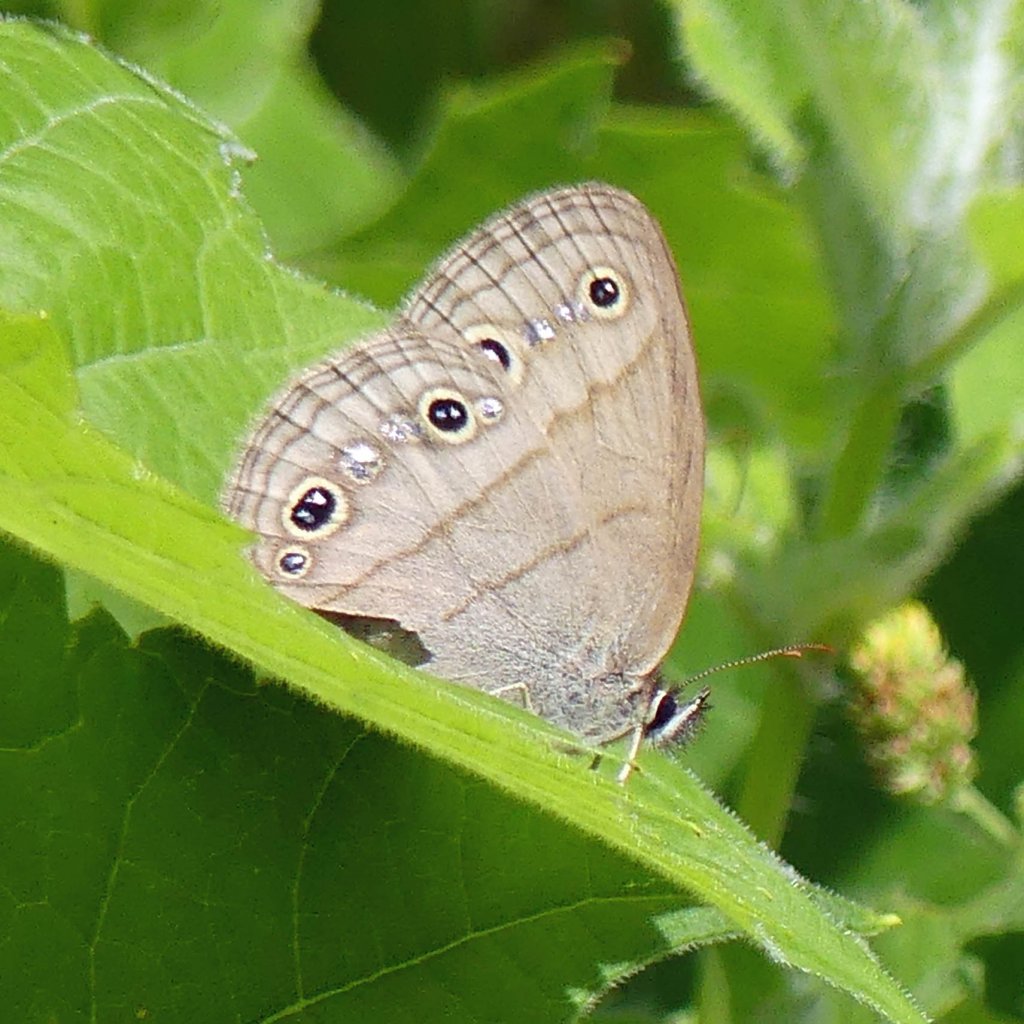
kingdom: Animalia
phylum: Arthropoda
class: Insecta
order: Lepidoptera
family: Nymphalidae
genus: Euptychia
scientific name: Euptychia cymela
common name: Little Wood Satyr
